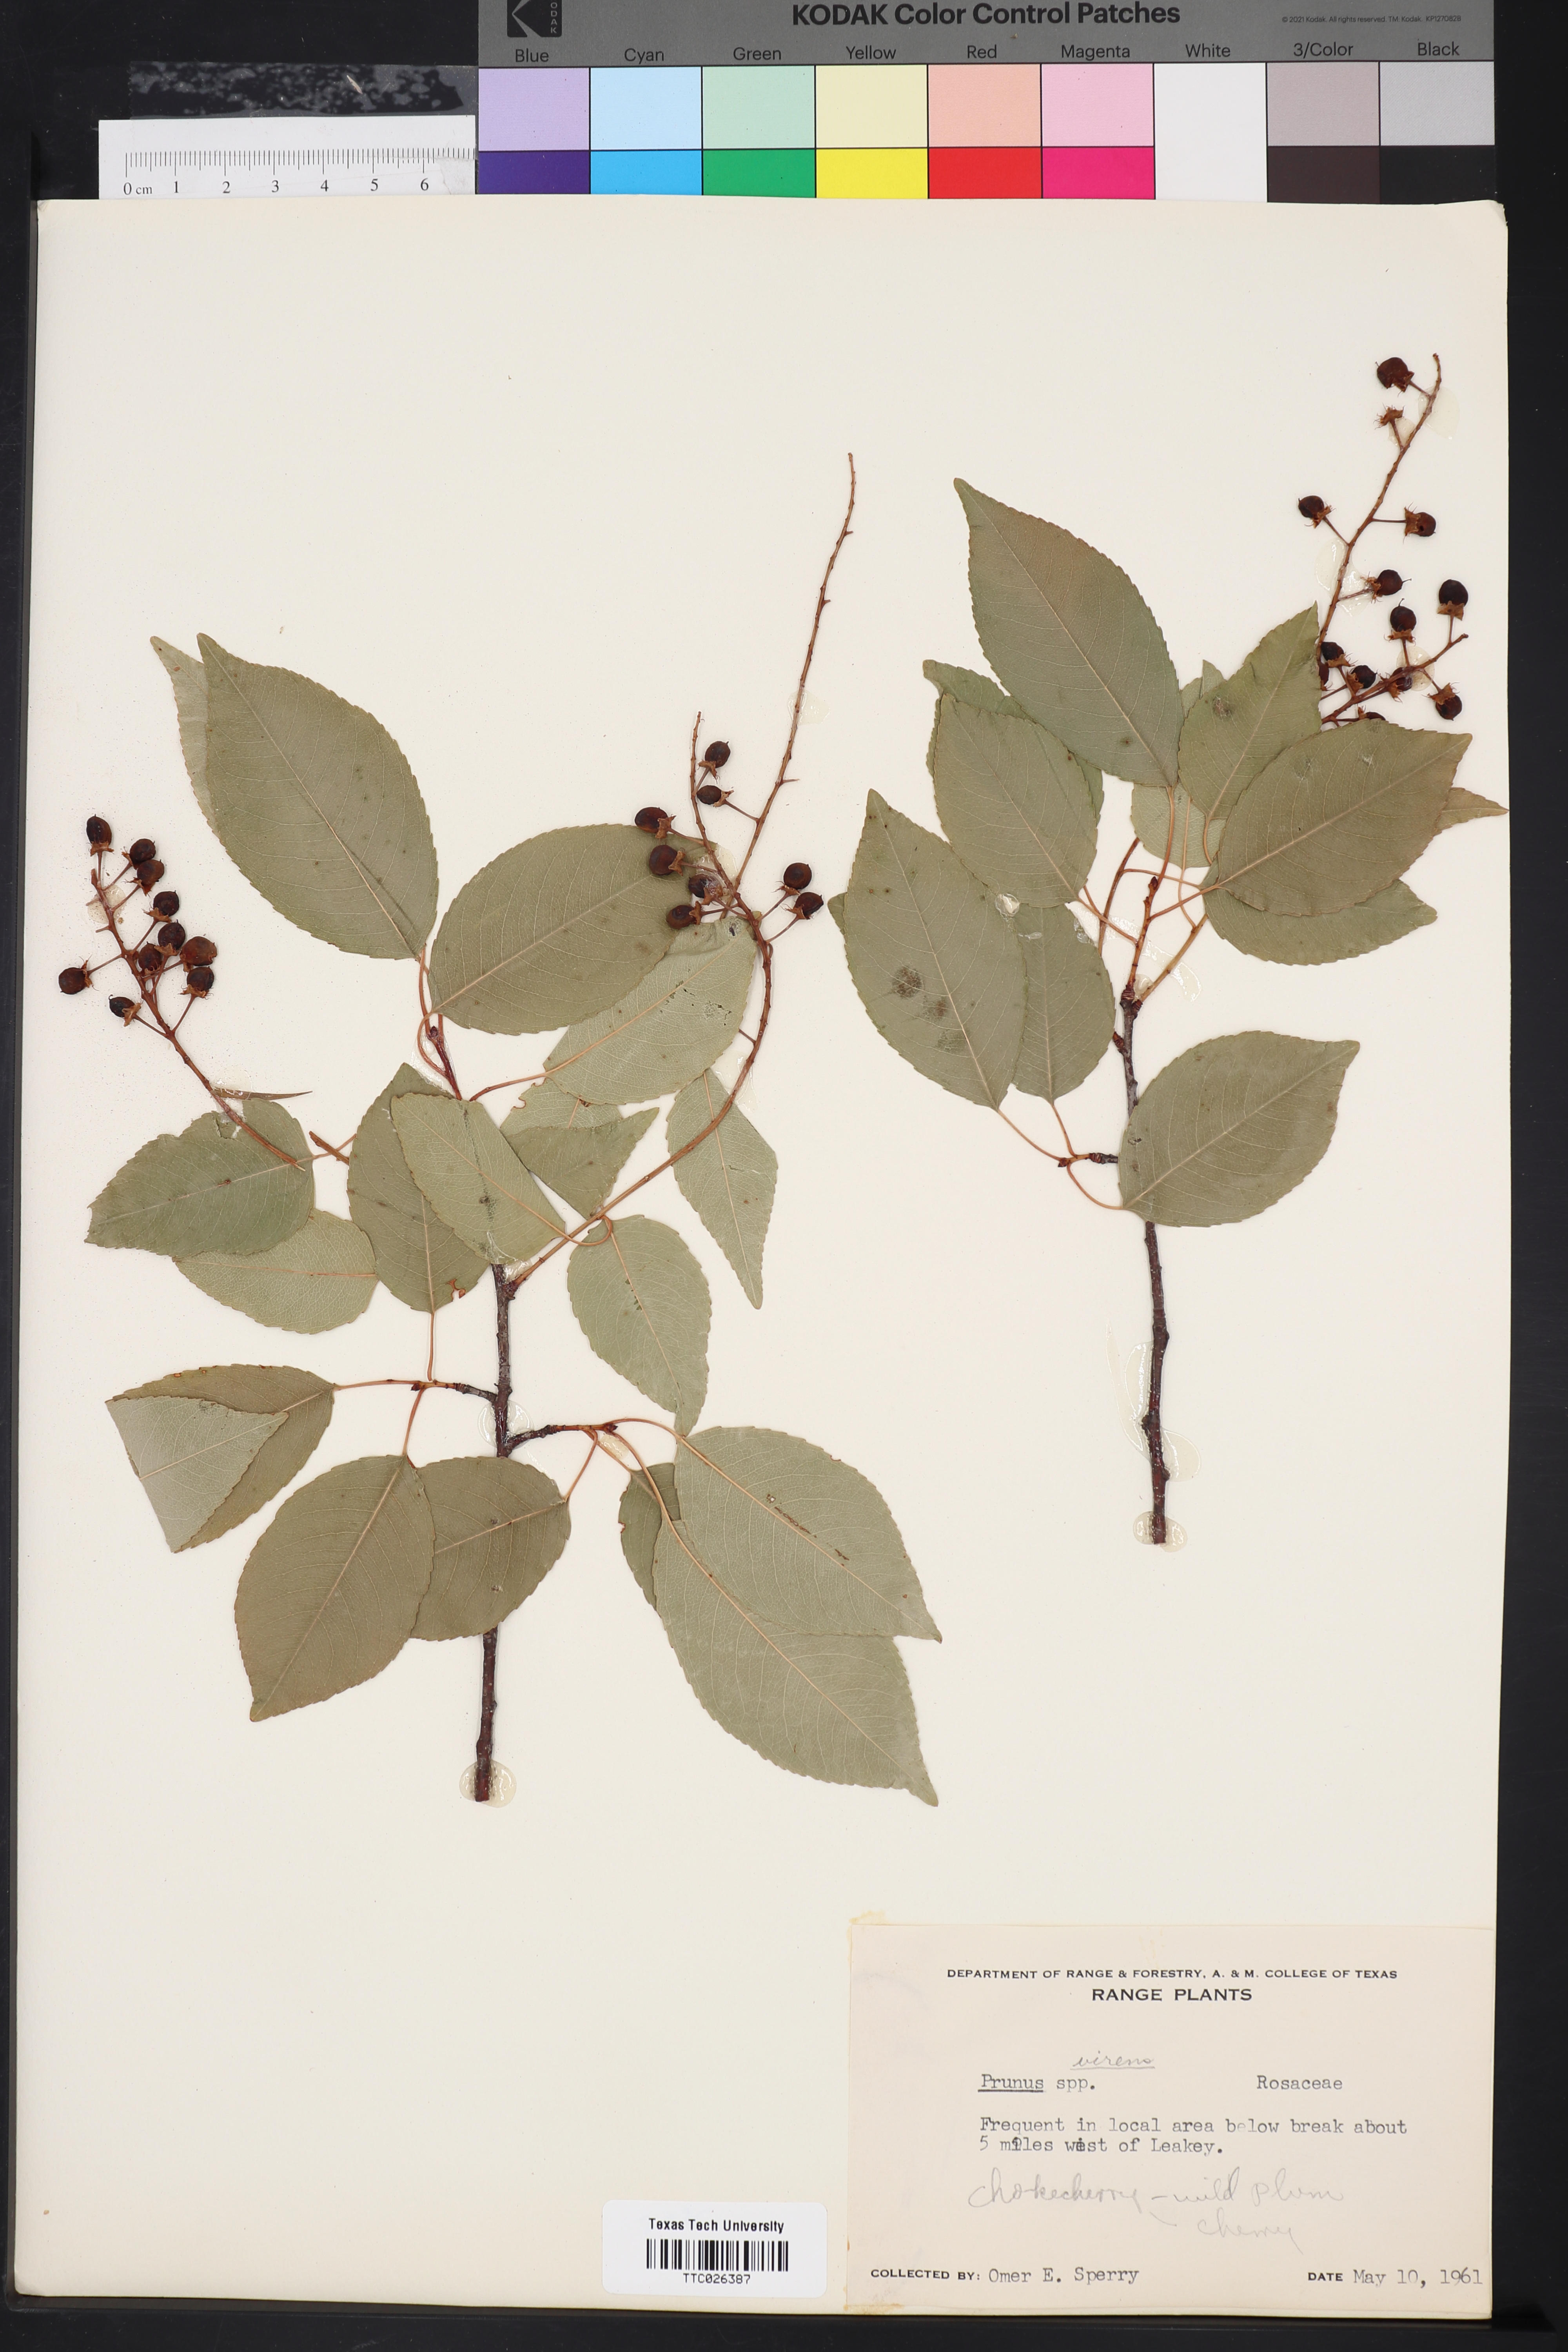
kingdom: Plantae
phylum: Tracheophyta
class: Magnoliopsida
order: Rosales
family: Rosaceae
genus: Prunus
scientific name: Prunus serotina
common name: Black cherry
